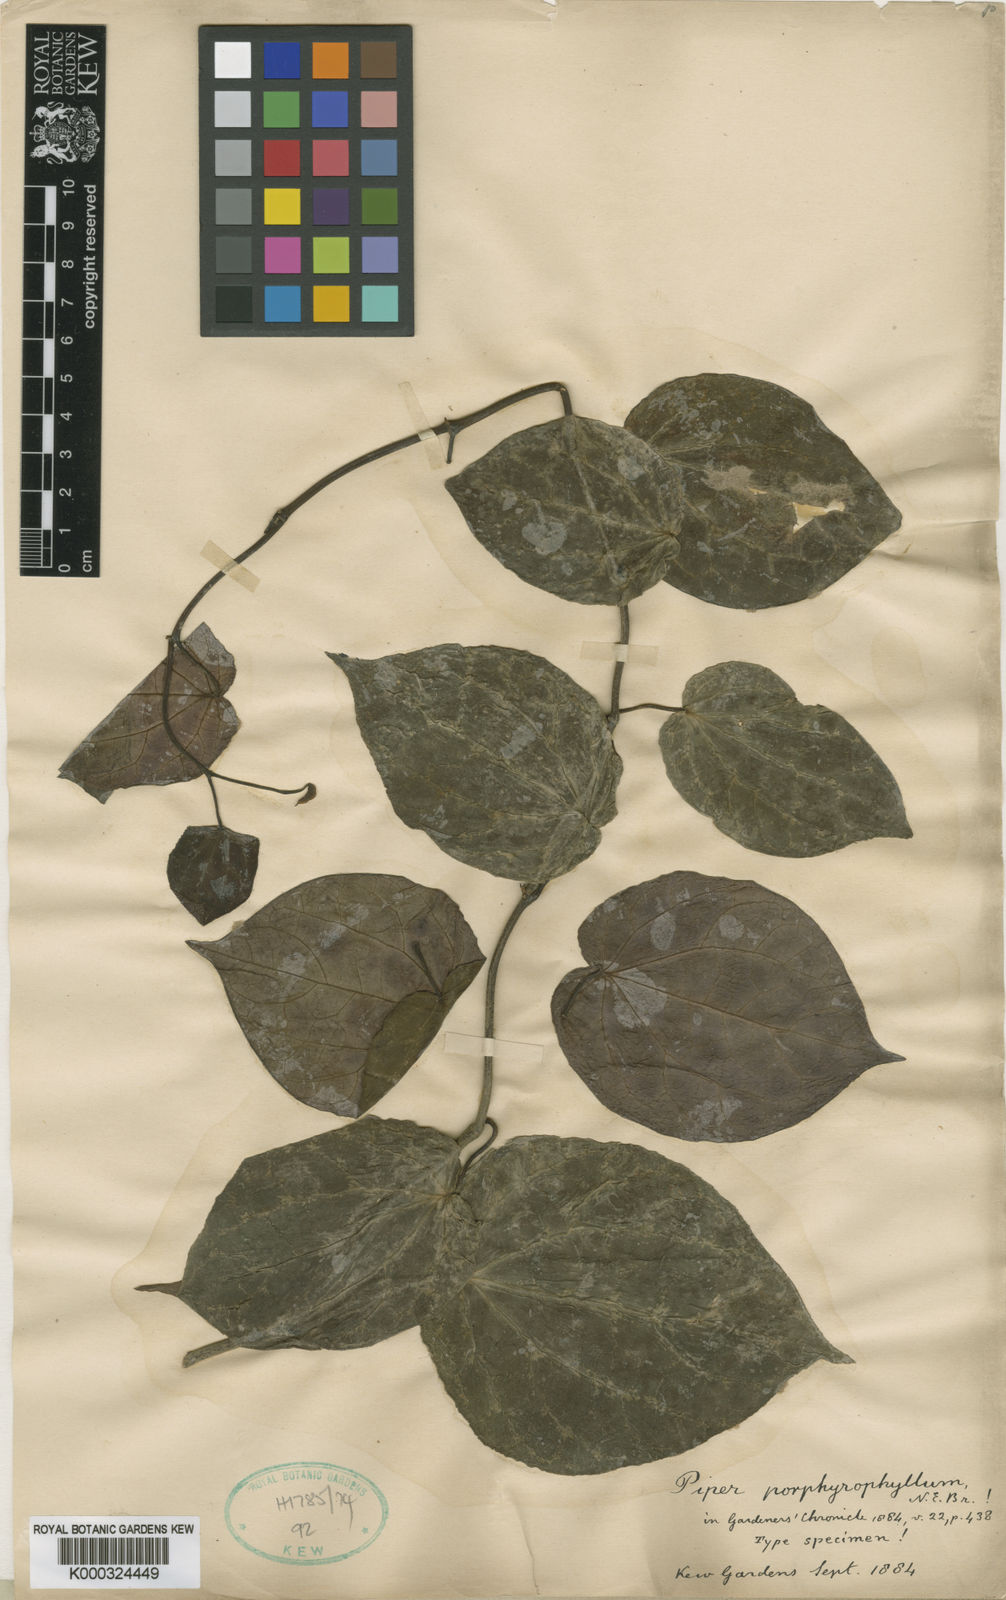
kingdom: Plantae
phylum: Tracheophyta
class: Magnoliopsida
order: Piperales
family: Piperaceae
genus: Piper
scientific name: Piper porphyrophyllum
